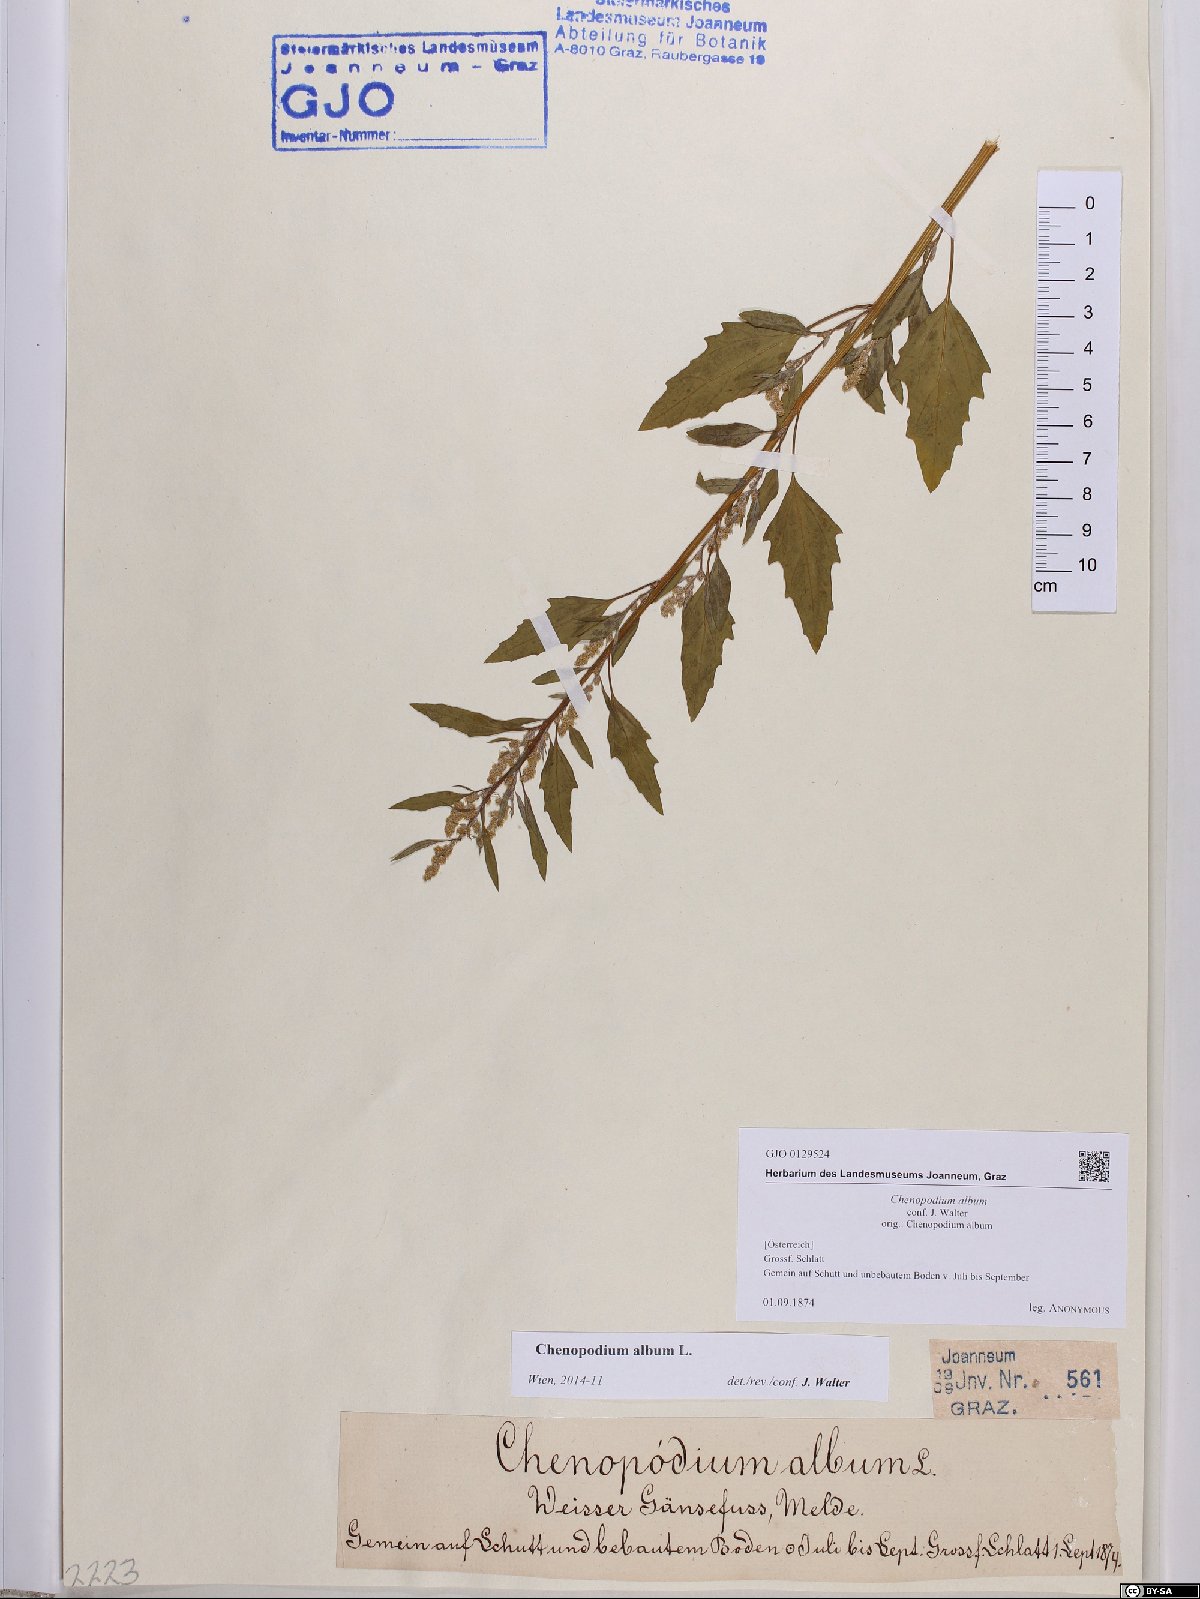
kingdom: Plantae
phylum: Tracheophyta
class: Magnoliopsida
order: Caryophyllales
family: Amaranthaceae
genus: Chenopodium
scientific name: Chenopodium album
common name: Fat-hen
